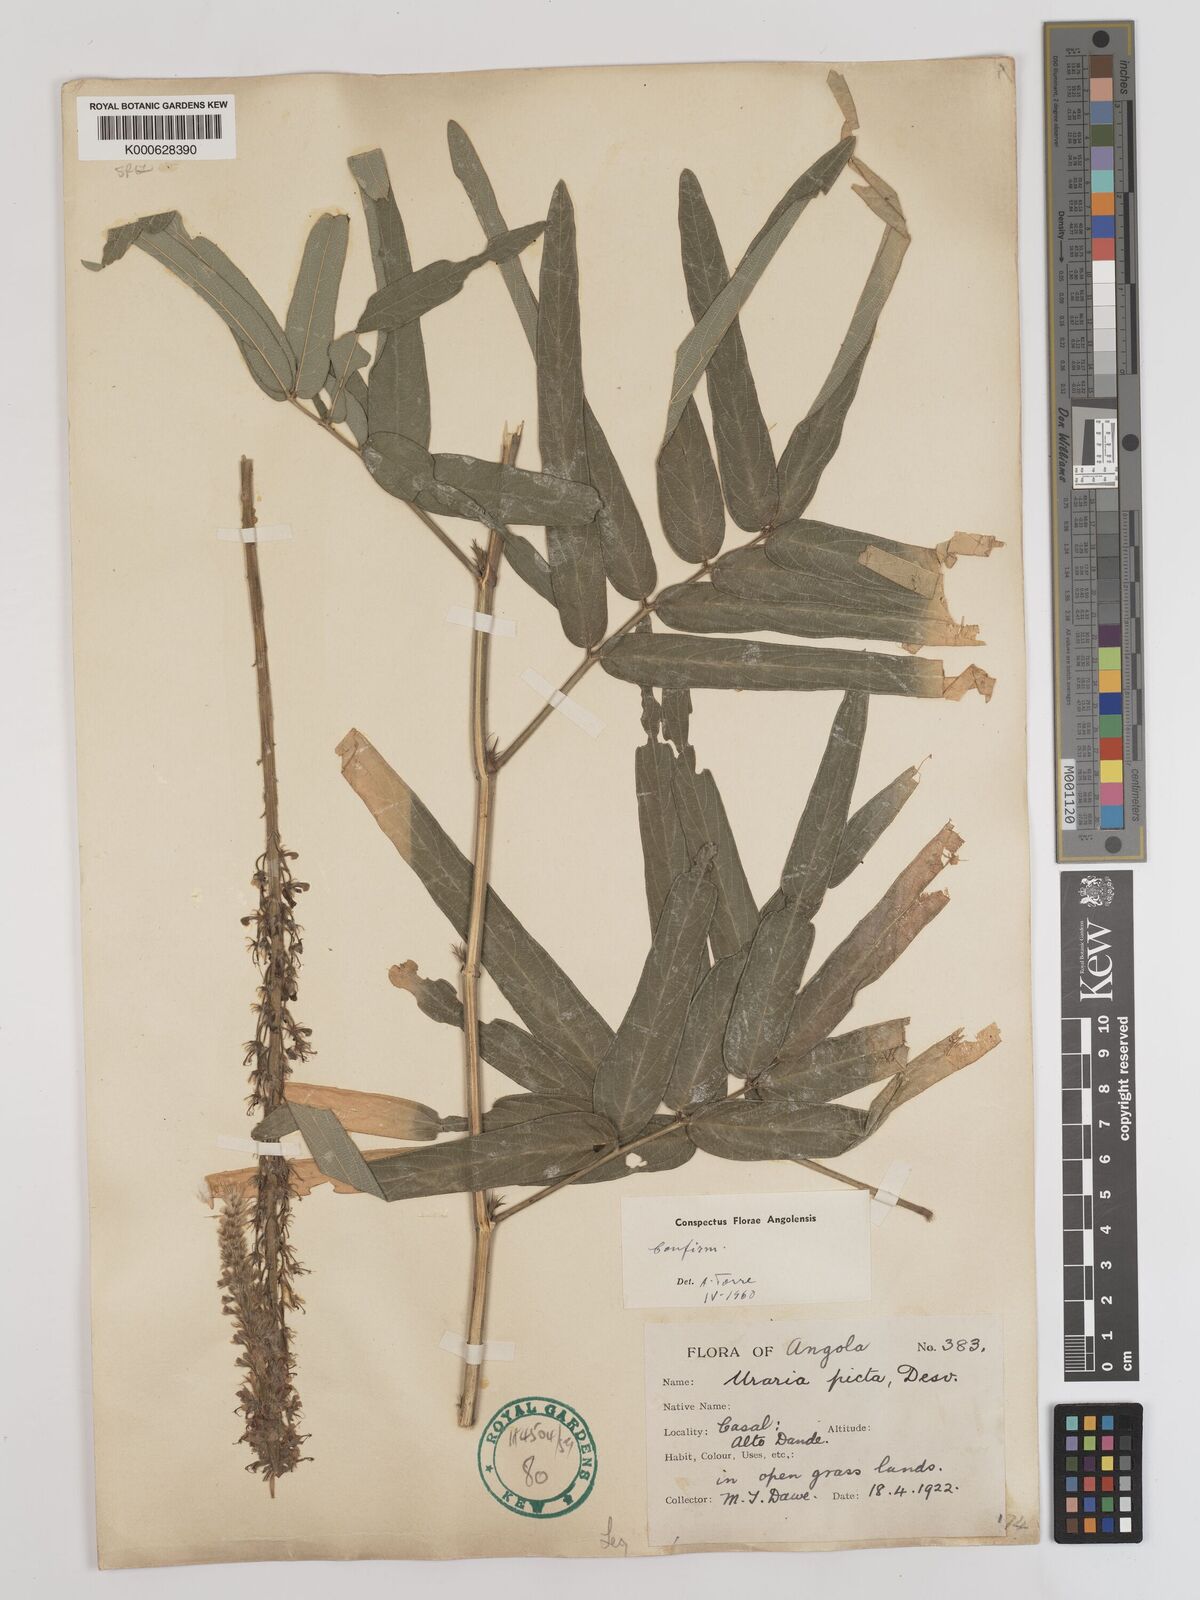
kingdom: Plantae
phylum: Tracheophyta
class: Magnoliopsida
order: Fabales
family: Fabaceae
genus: Uraria
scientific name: Uraria picta
